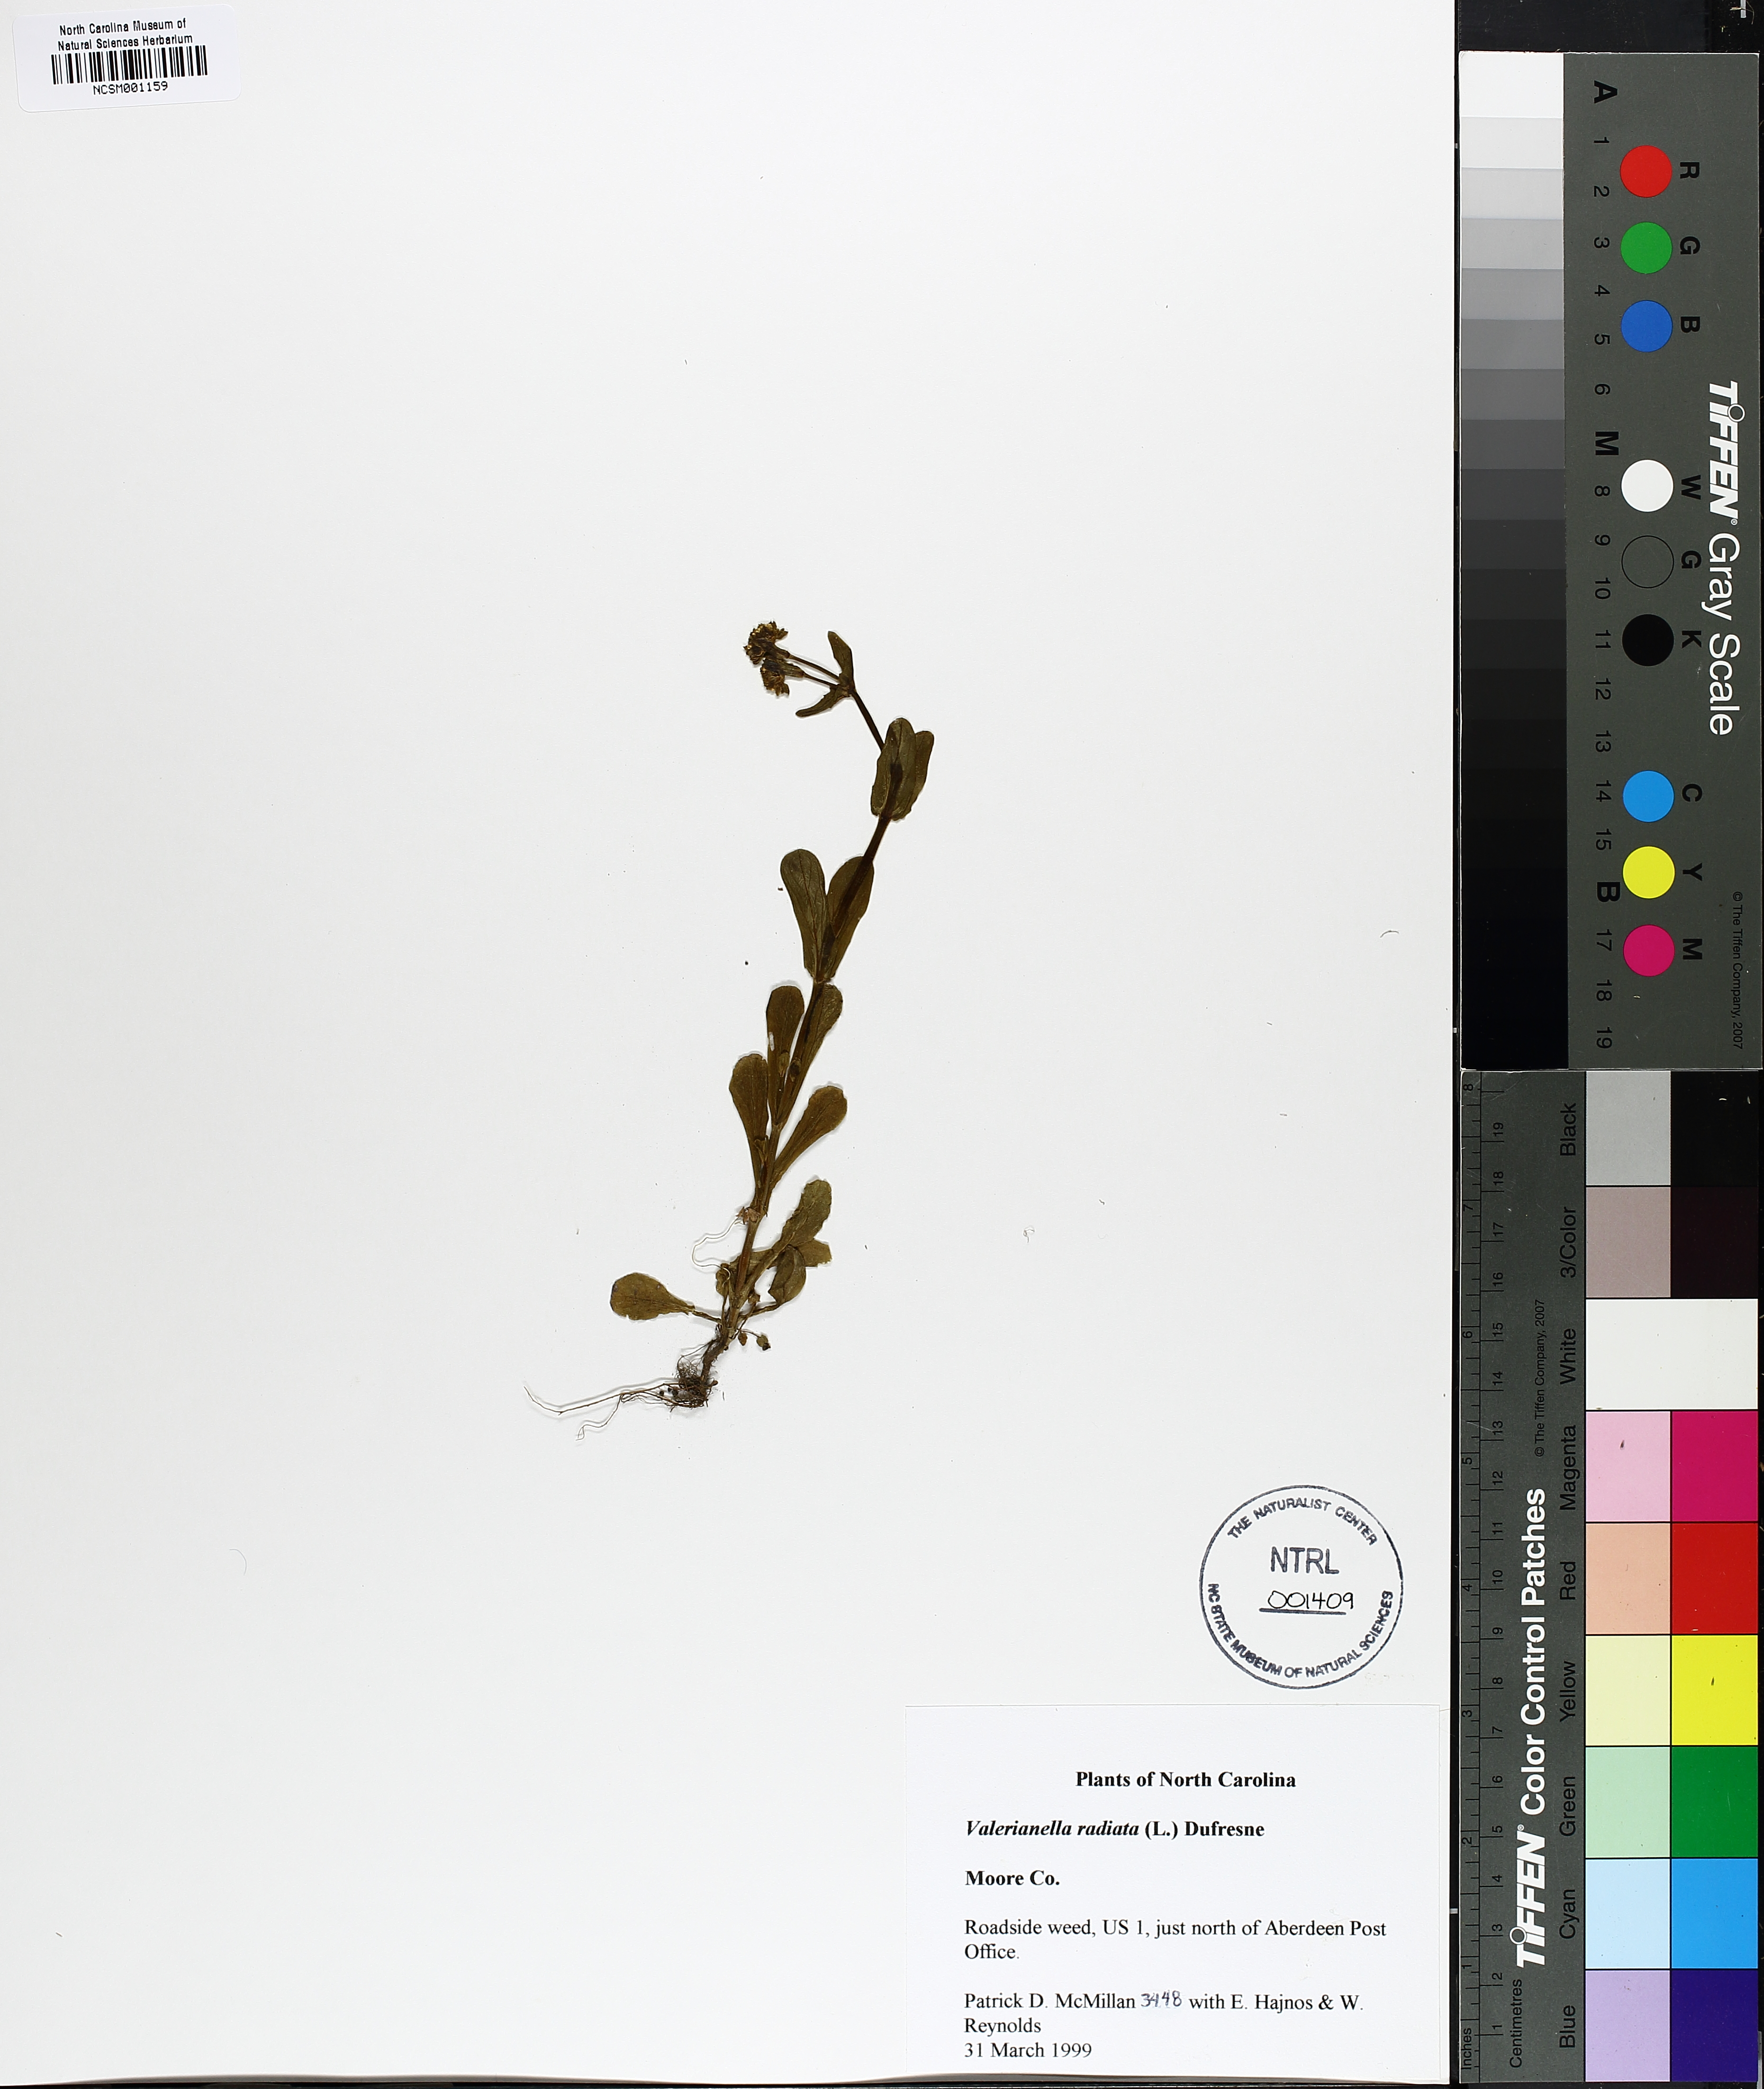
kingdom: Plantae
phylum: Tracheophyta
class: Magnoliopsida
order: Dipsacales
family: Caprifoliaceae
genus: Valerianella
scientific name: Valerianella radiata
